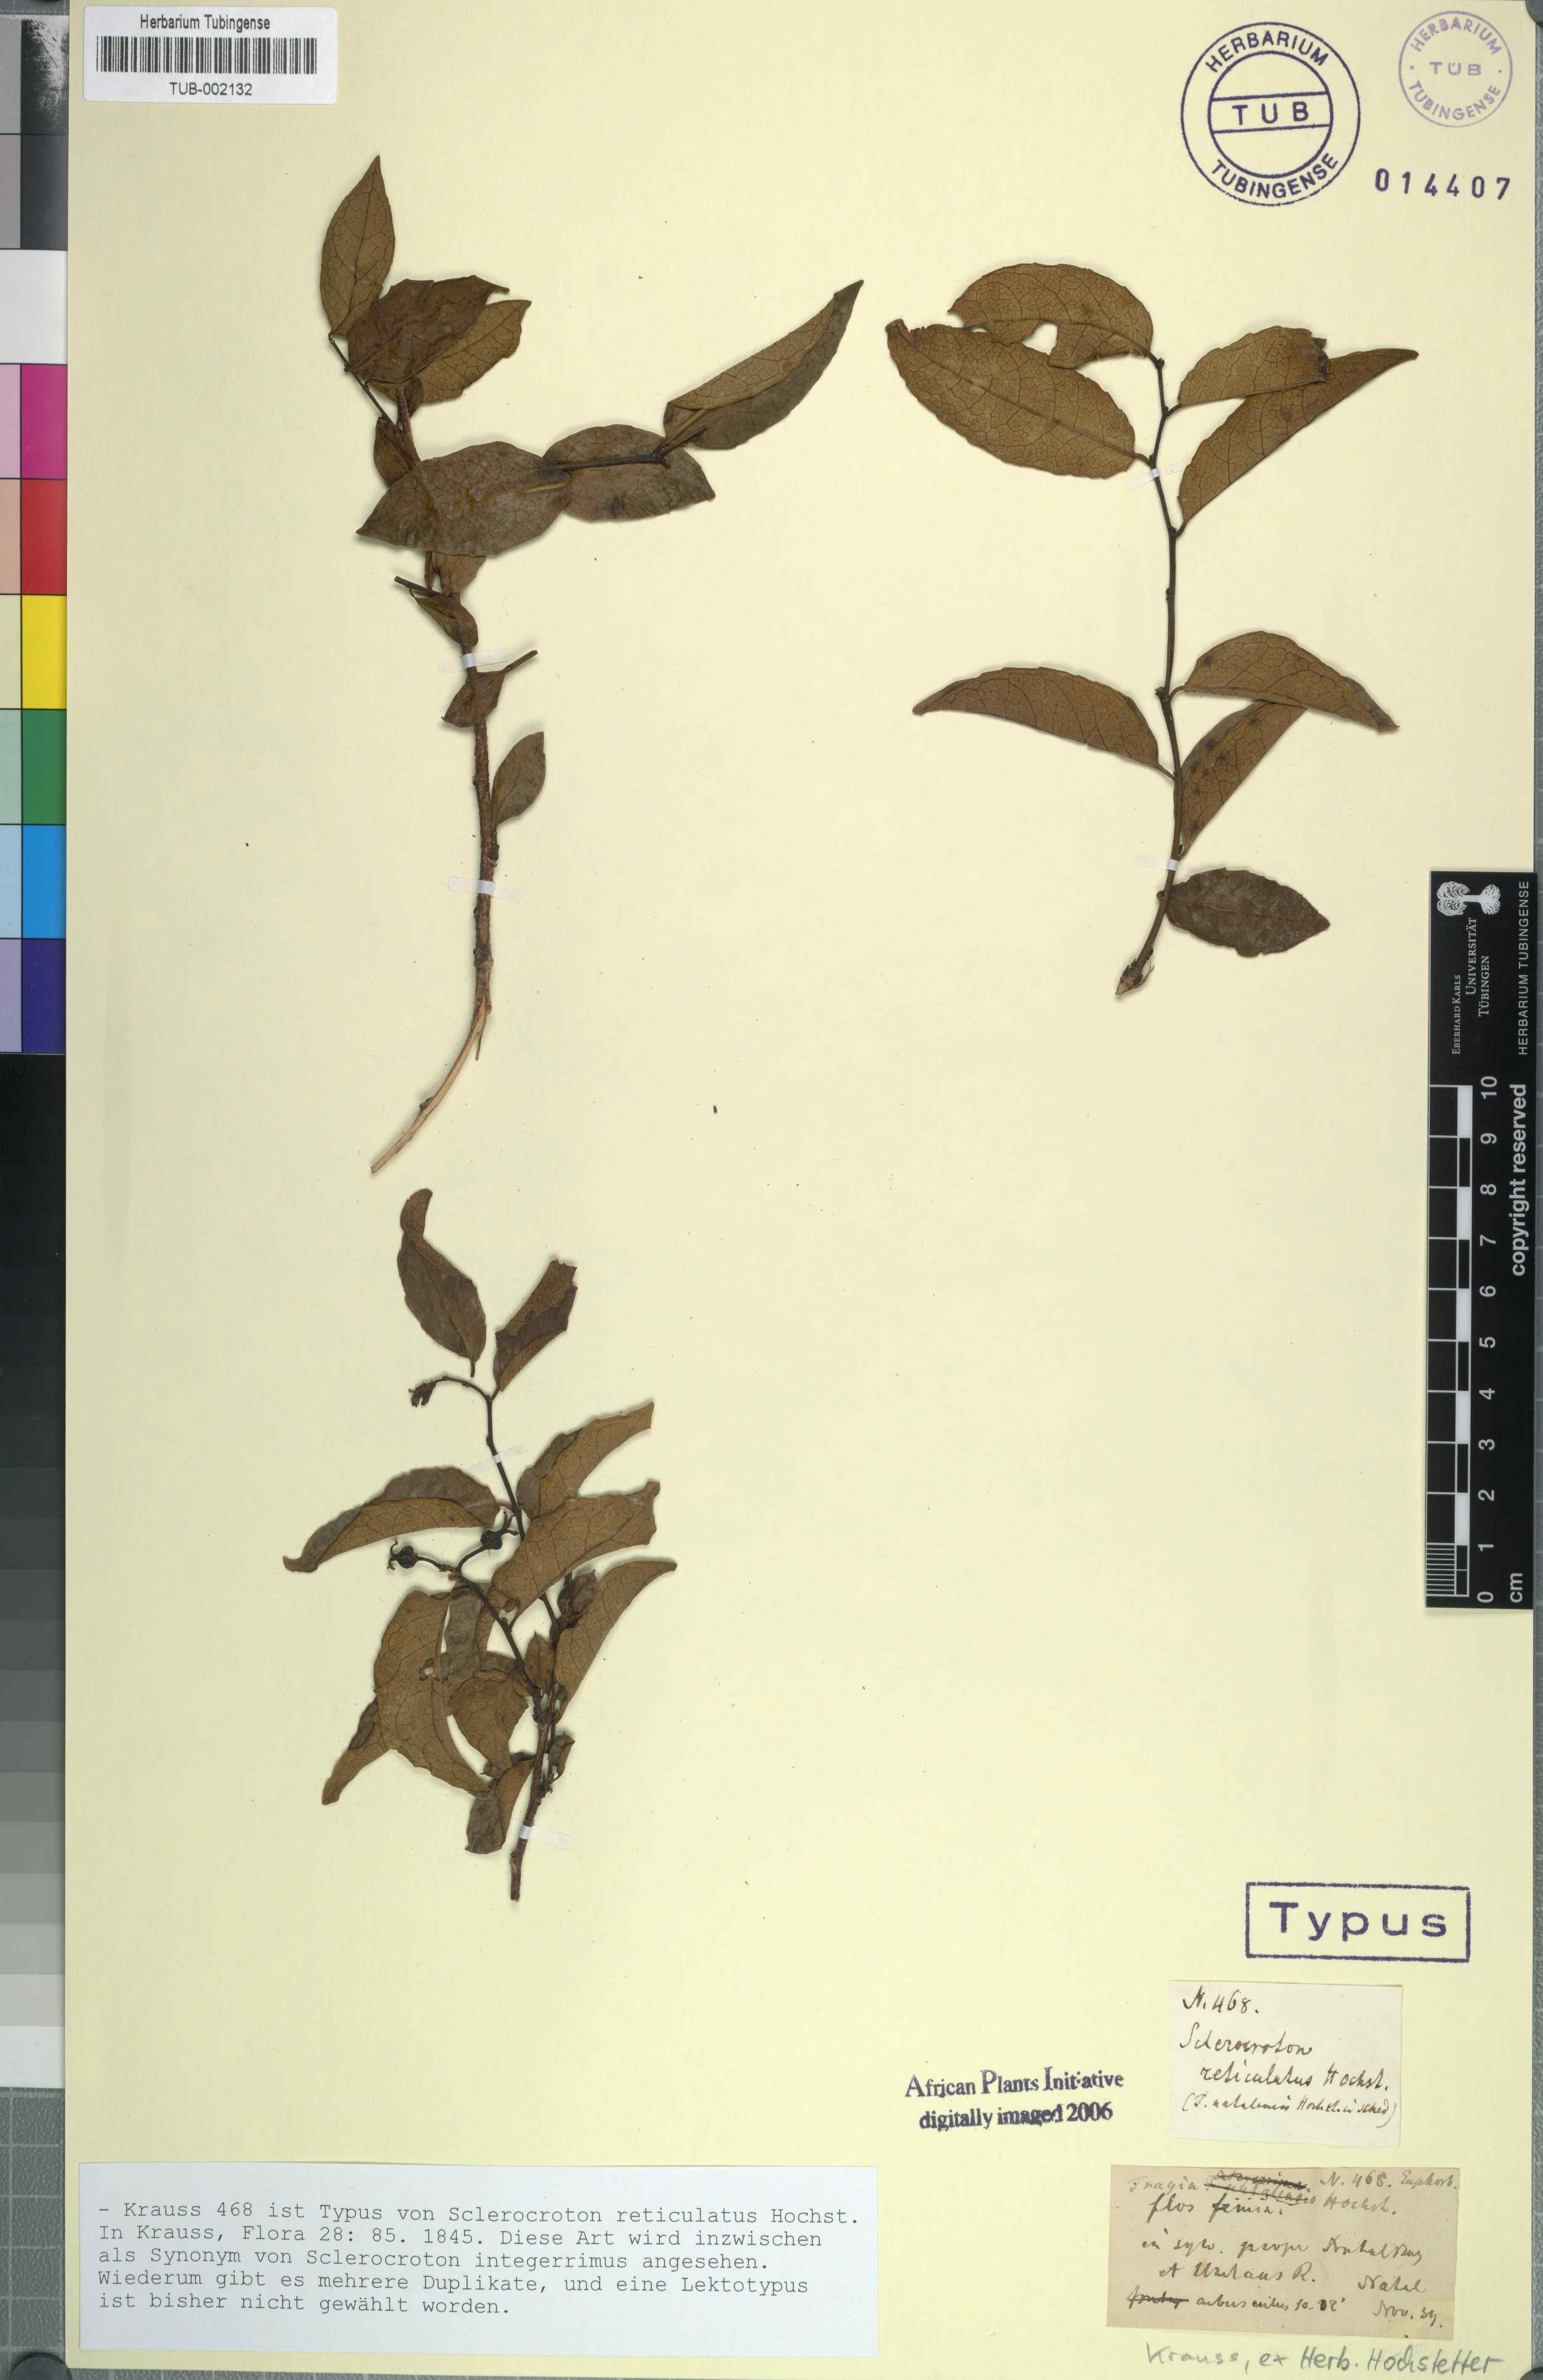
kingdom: Plantae
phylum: Tracheophyta
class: Magnoliopsida
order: Malpighiales
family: Euphorbiaceae
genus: Sclerocroton
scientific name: Sclerocroton integerrimus
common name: Duiker berry
